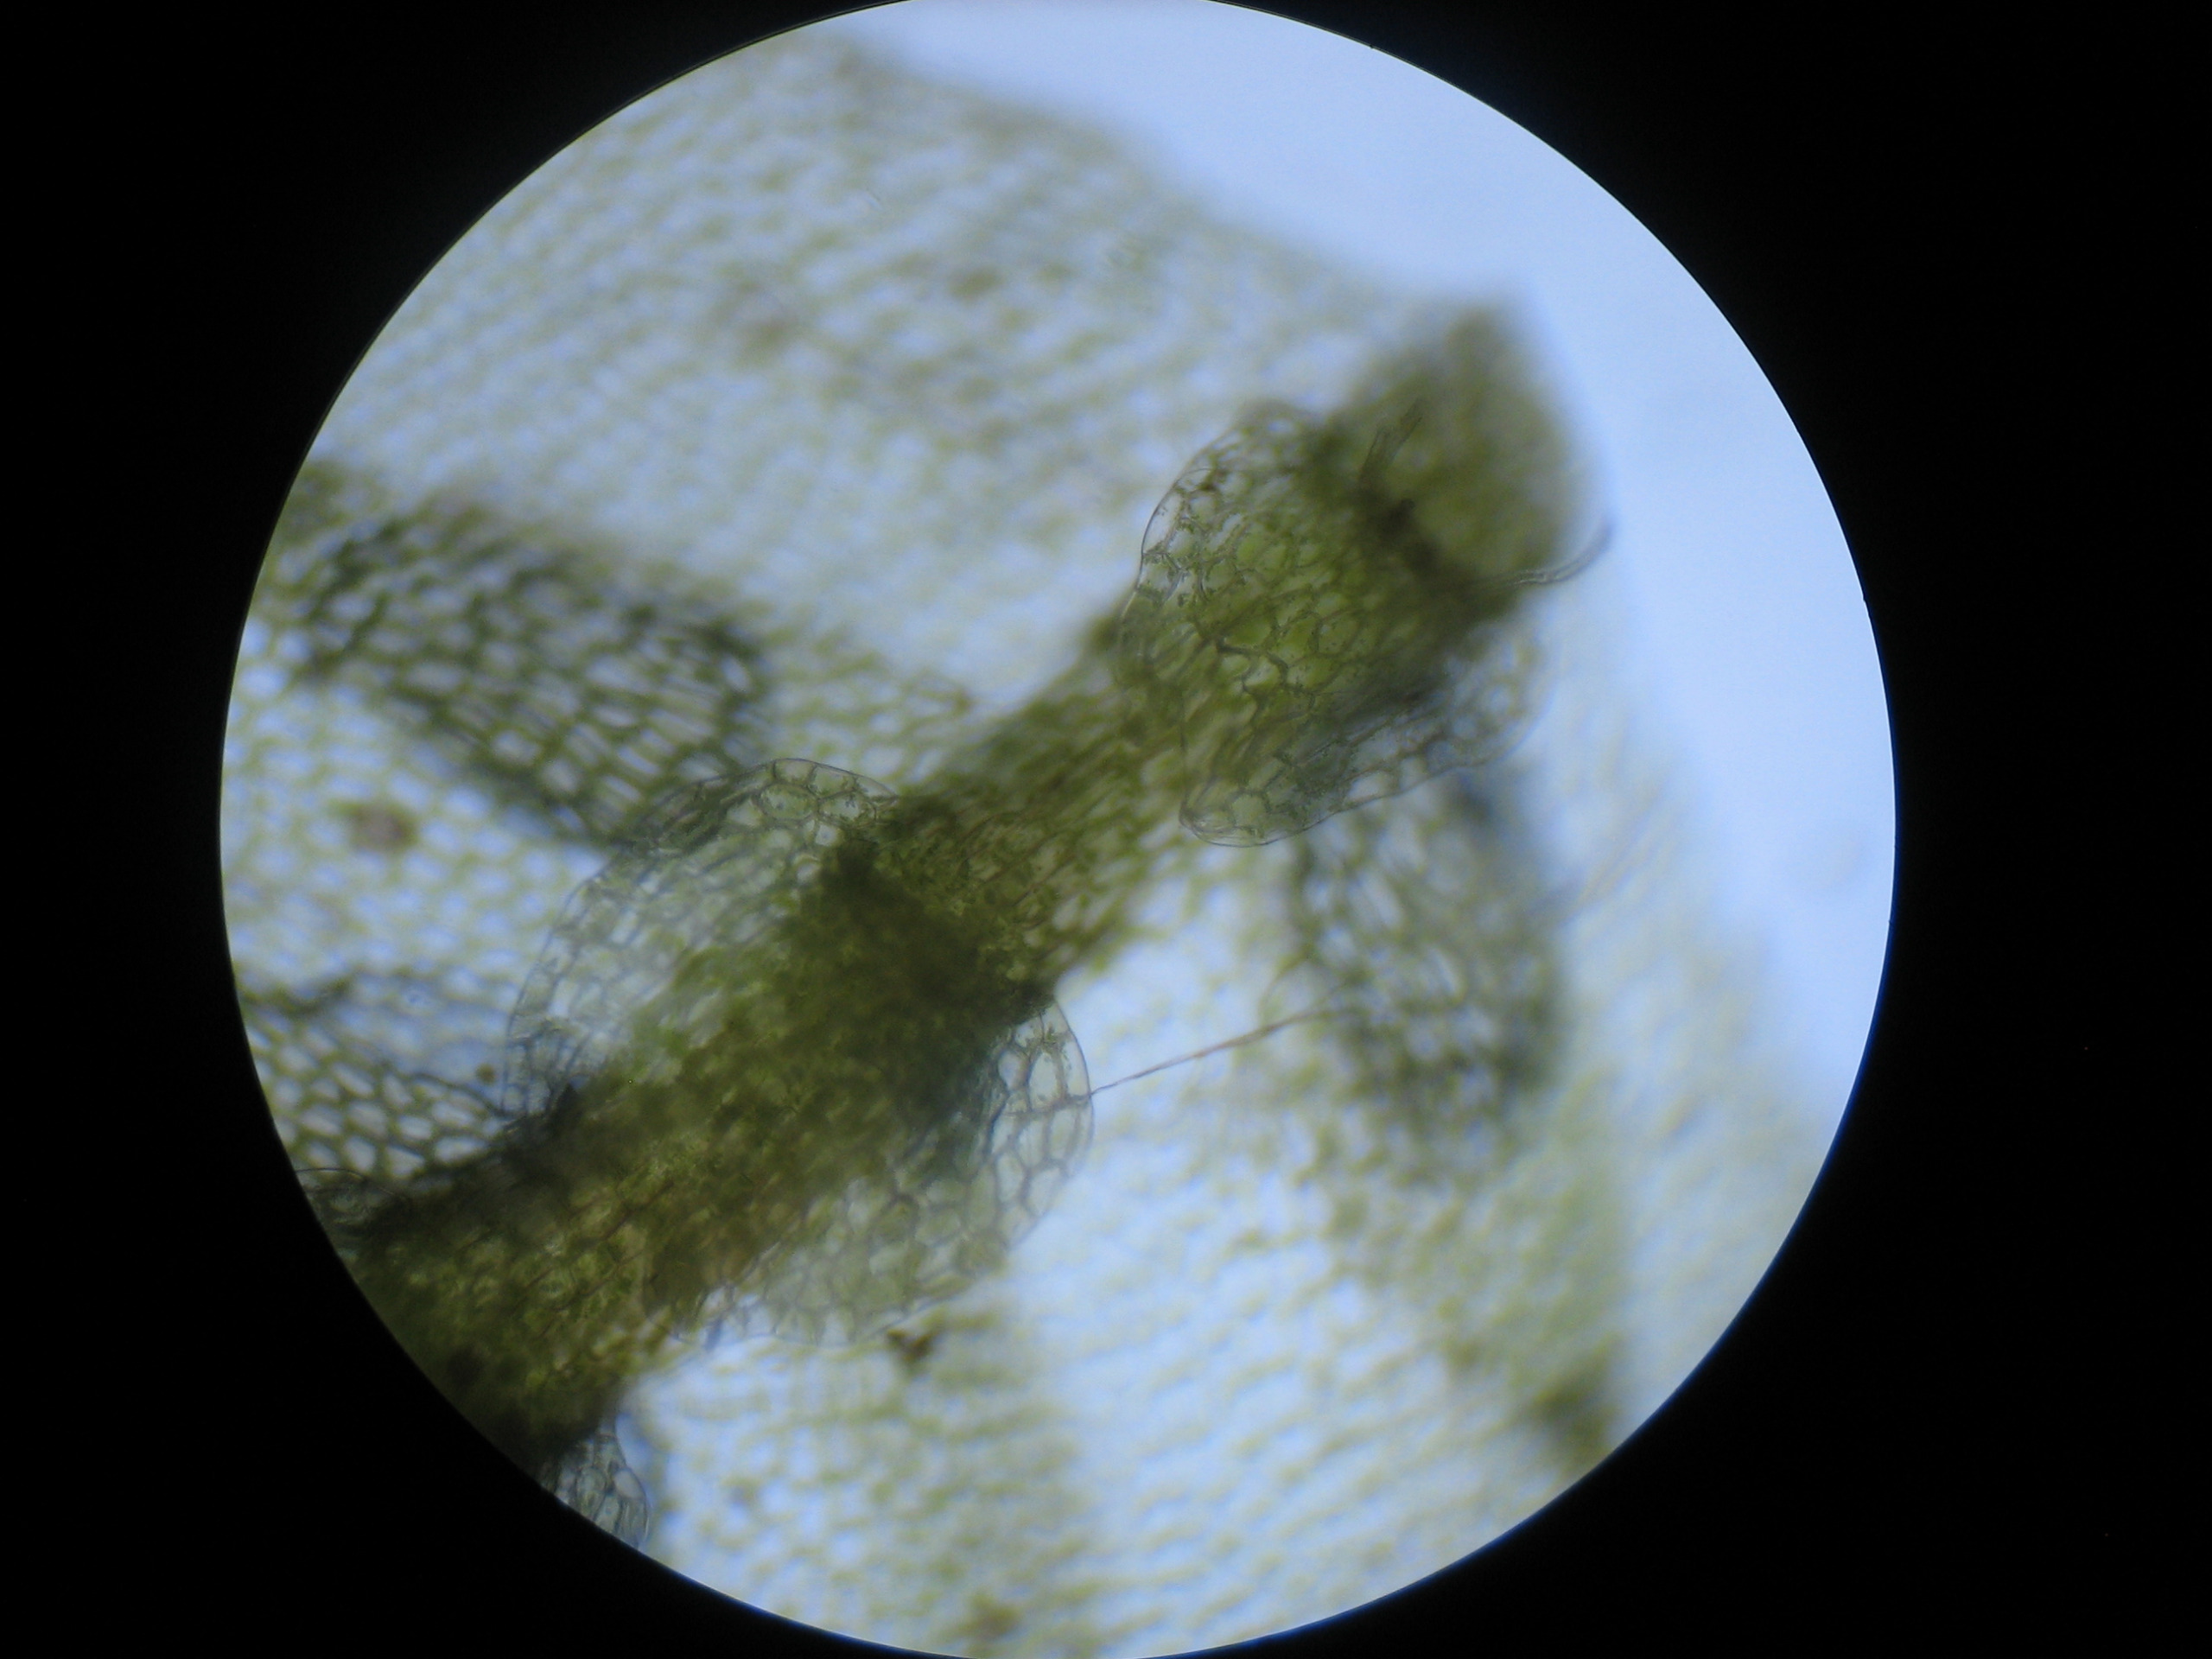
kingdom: Plantae
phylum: Marchantiophyta
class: Jungermanniopsida
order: Jungermanniales
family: Calypogeiaceae
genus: Calypogeia
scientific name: Calypogeia muelleriana
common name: Almindelig sækmos
